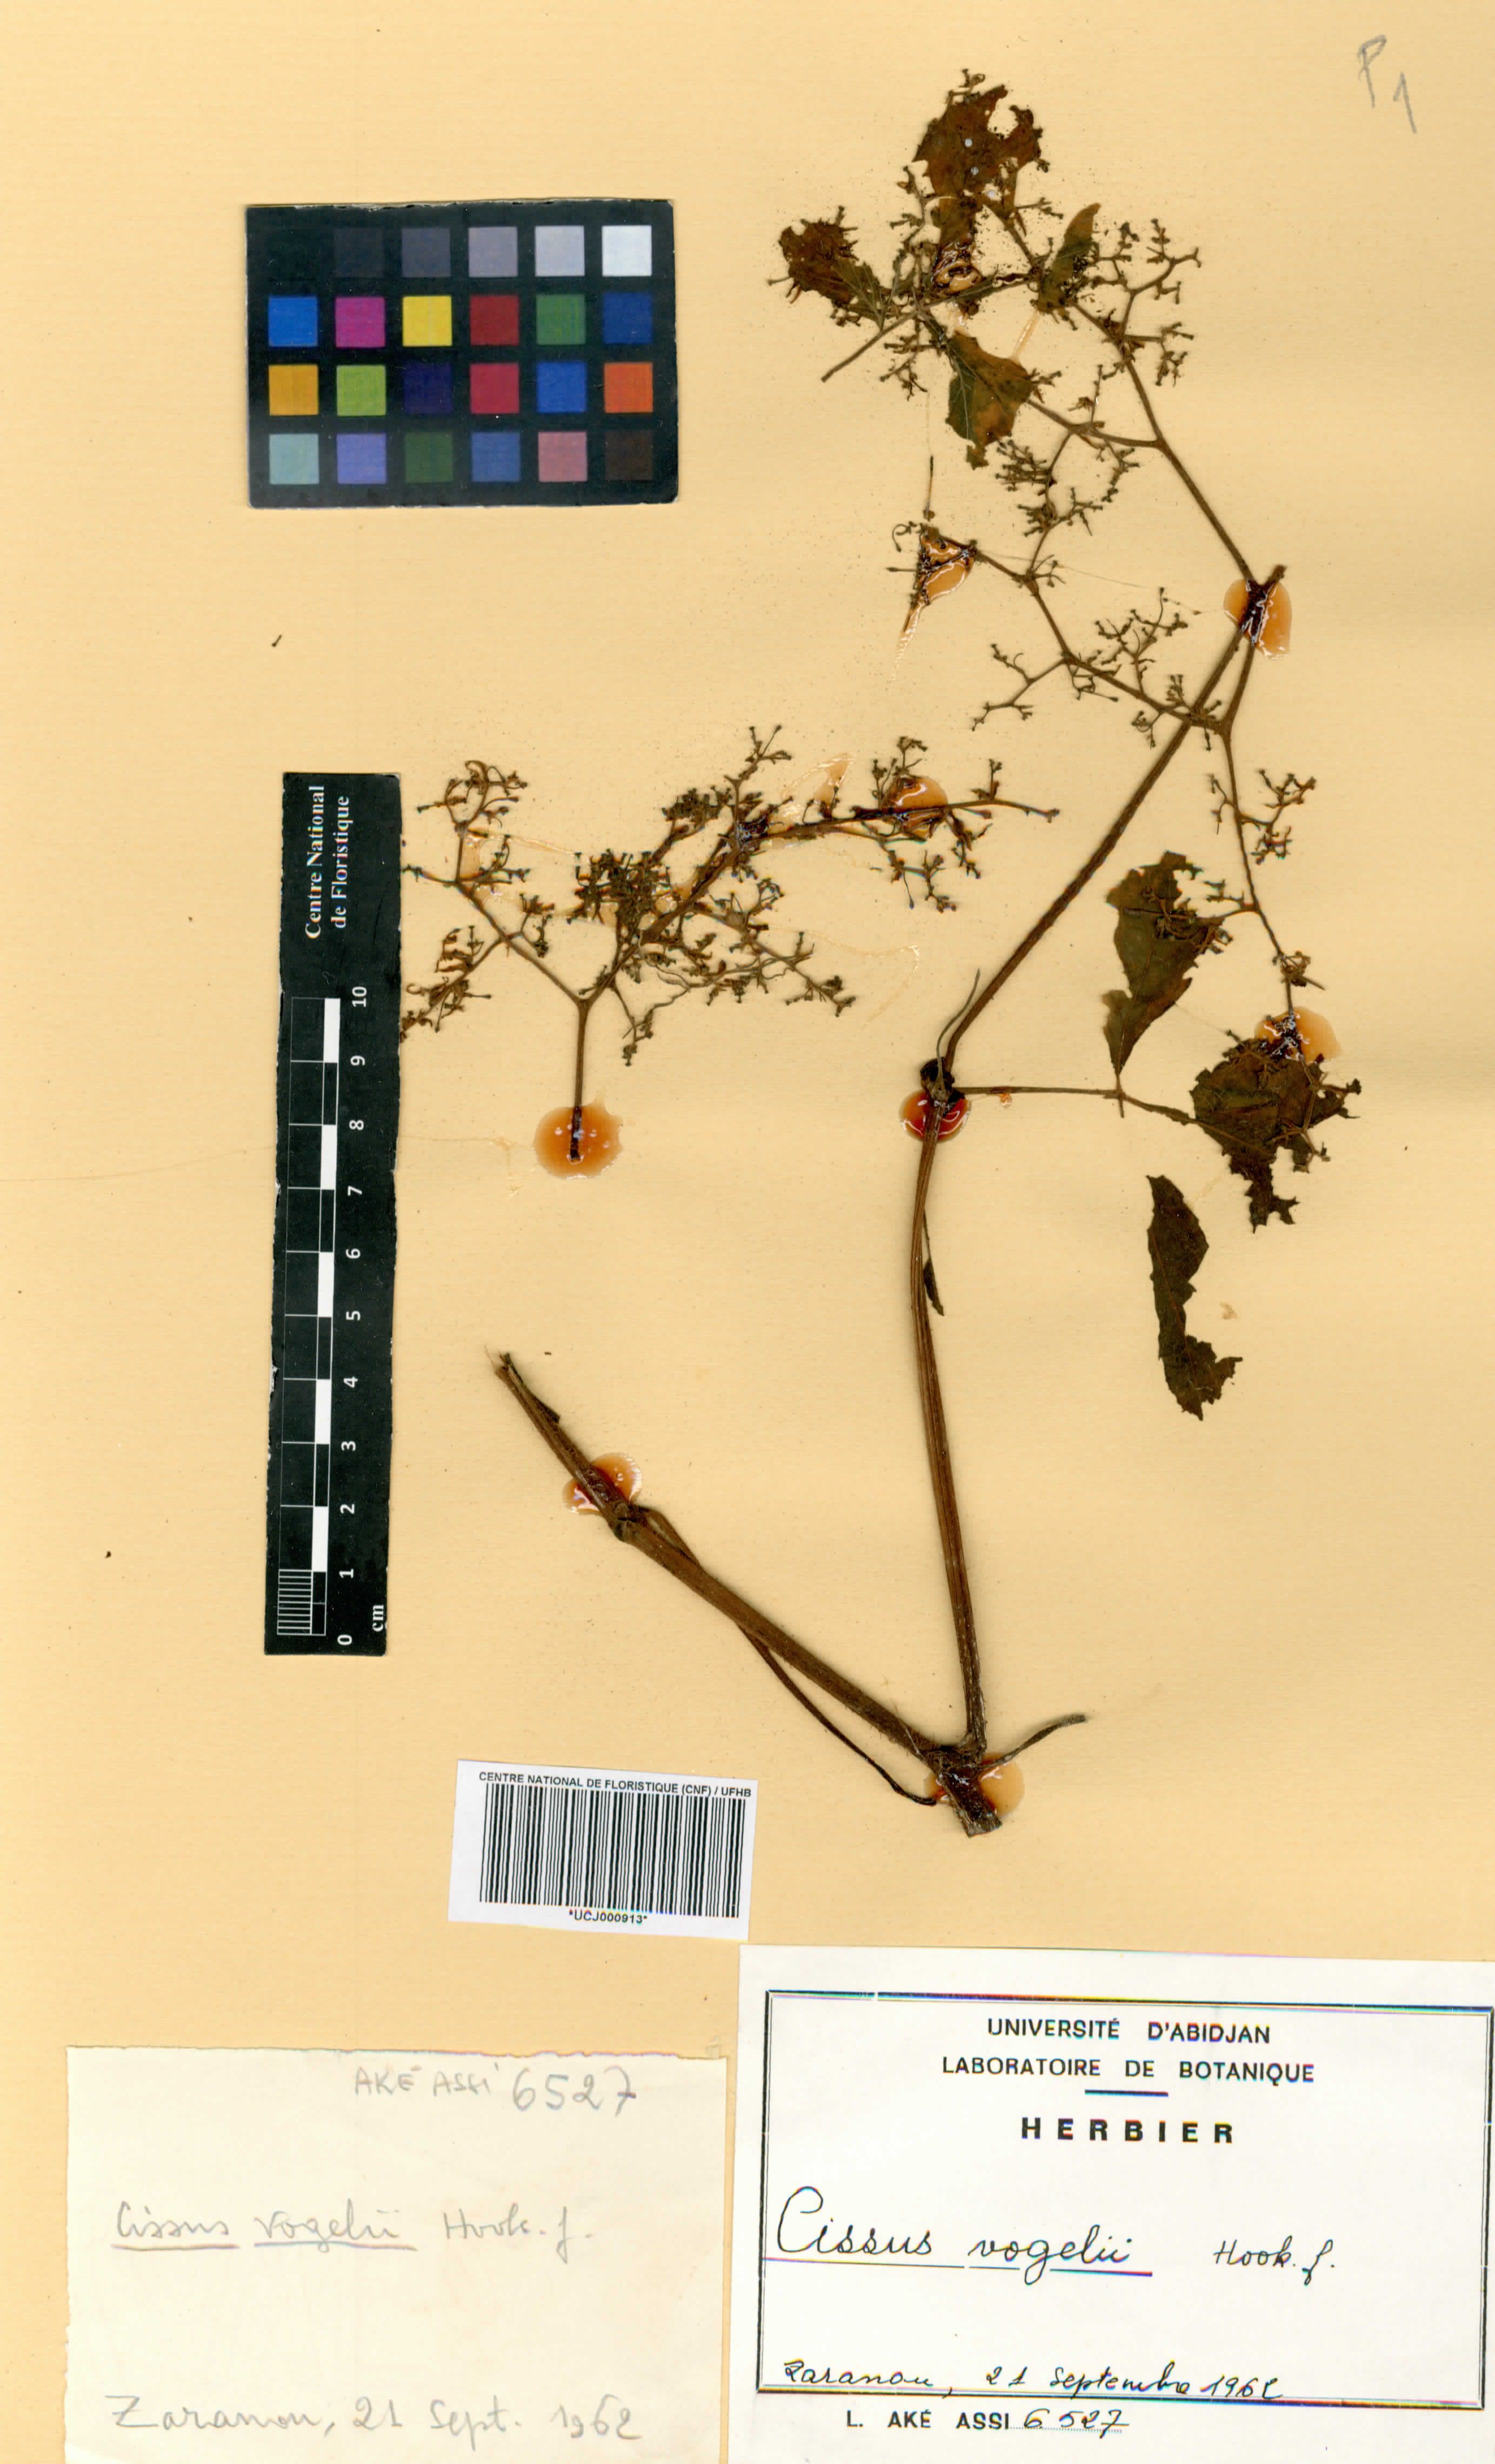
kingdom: Plantae
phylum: Tracheophyta
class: Magnoliopsida
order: Vitales
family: Vitaceae
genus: Cyphostemma
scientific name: Cyphostemma vogelii
